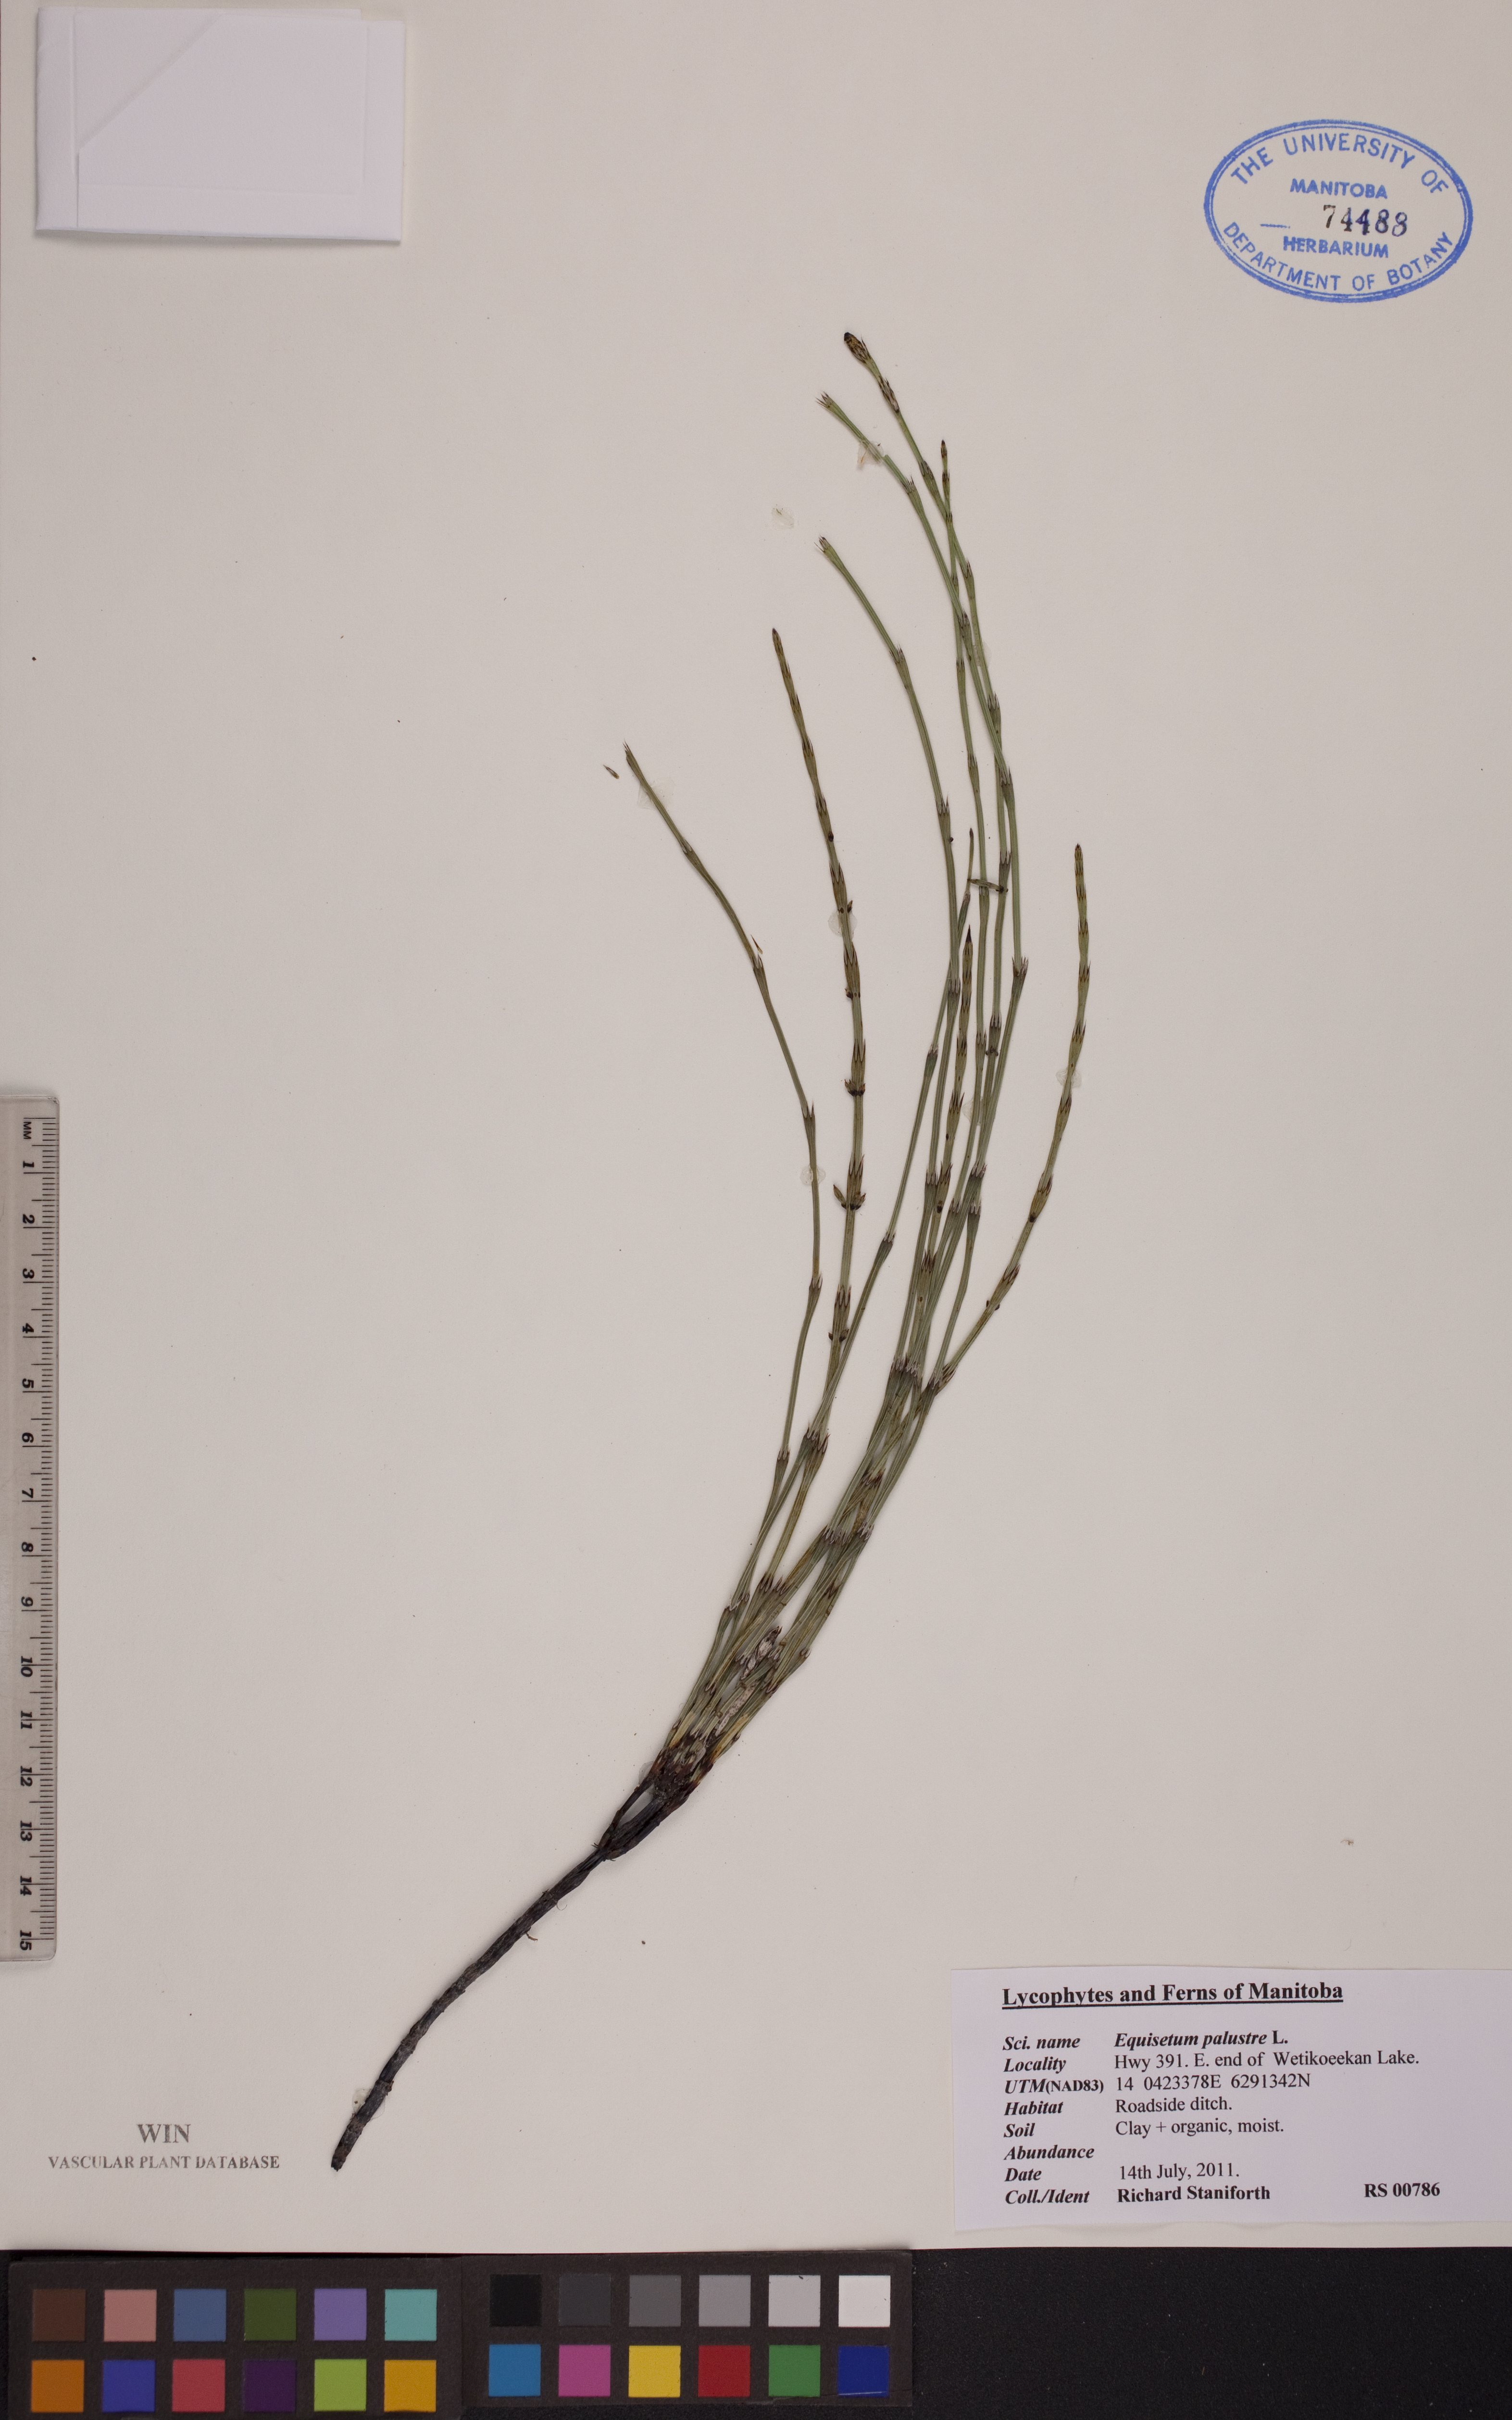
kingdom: Plantae
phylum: Tracheophyta
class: Polypodiopsida
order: Equisetales
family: Equisetaceae
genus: Equisetum
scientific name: Equisetum palustre
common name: Marsh horsetail
